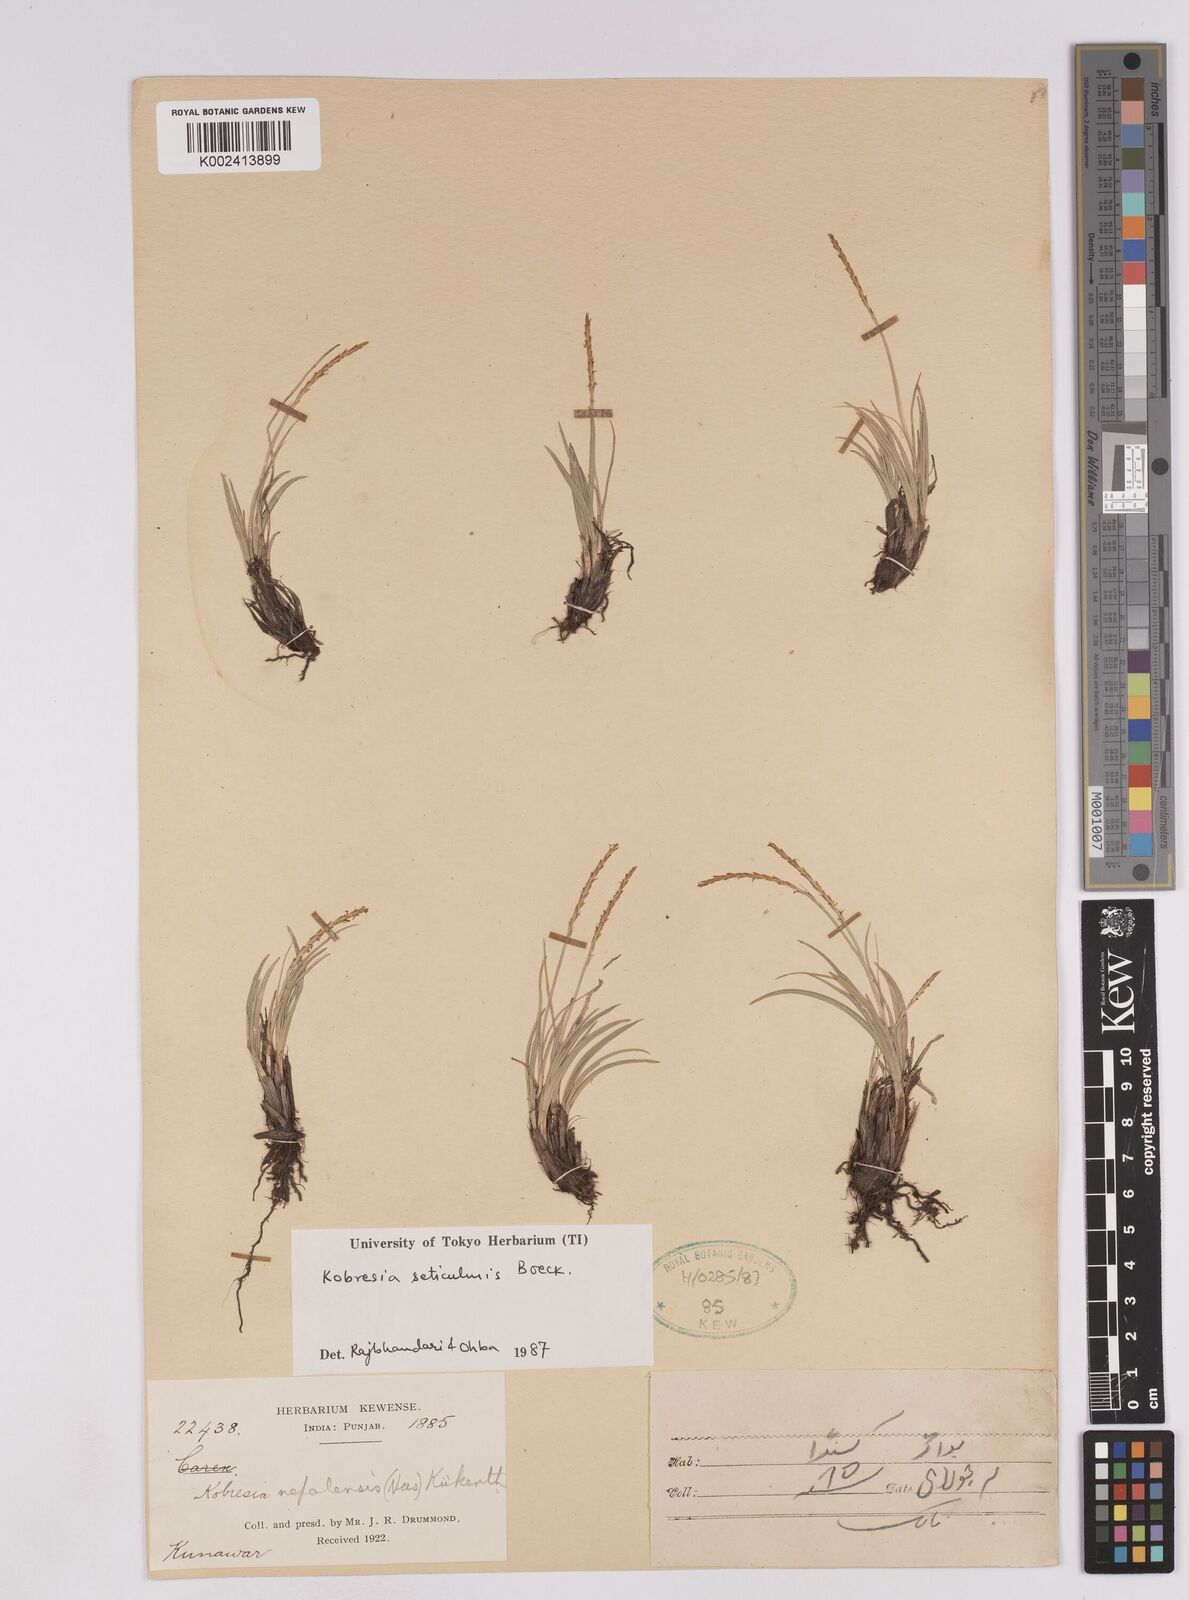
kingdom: Plantae
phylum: Tracheophyta
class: Liliopsida
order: Poales
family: Cyperaceae
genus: Carex
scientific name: Carex esenbeckii
